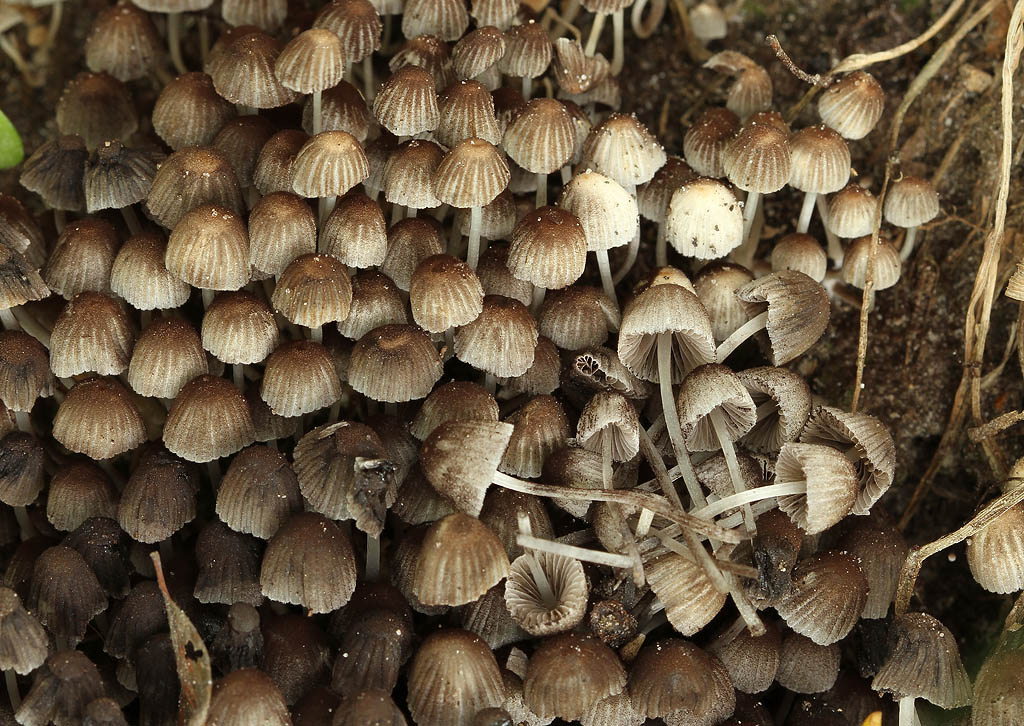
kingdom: Fungi
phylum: Basidiomycota
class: Agaricomycetes
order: Agaricales
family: Psathyrellaceae
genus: Coprinellus
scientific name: Coprinellus disseminatus
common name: bredsået blækhat
